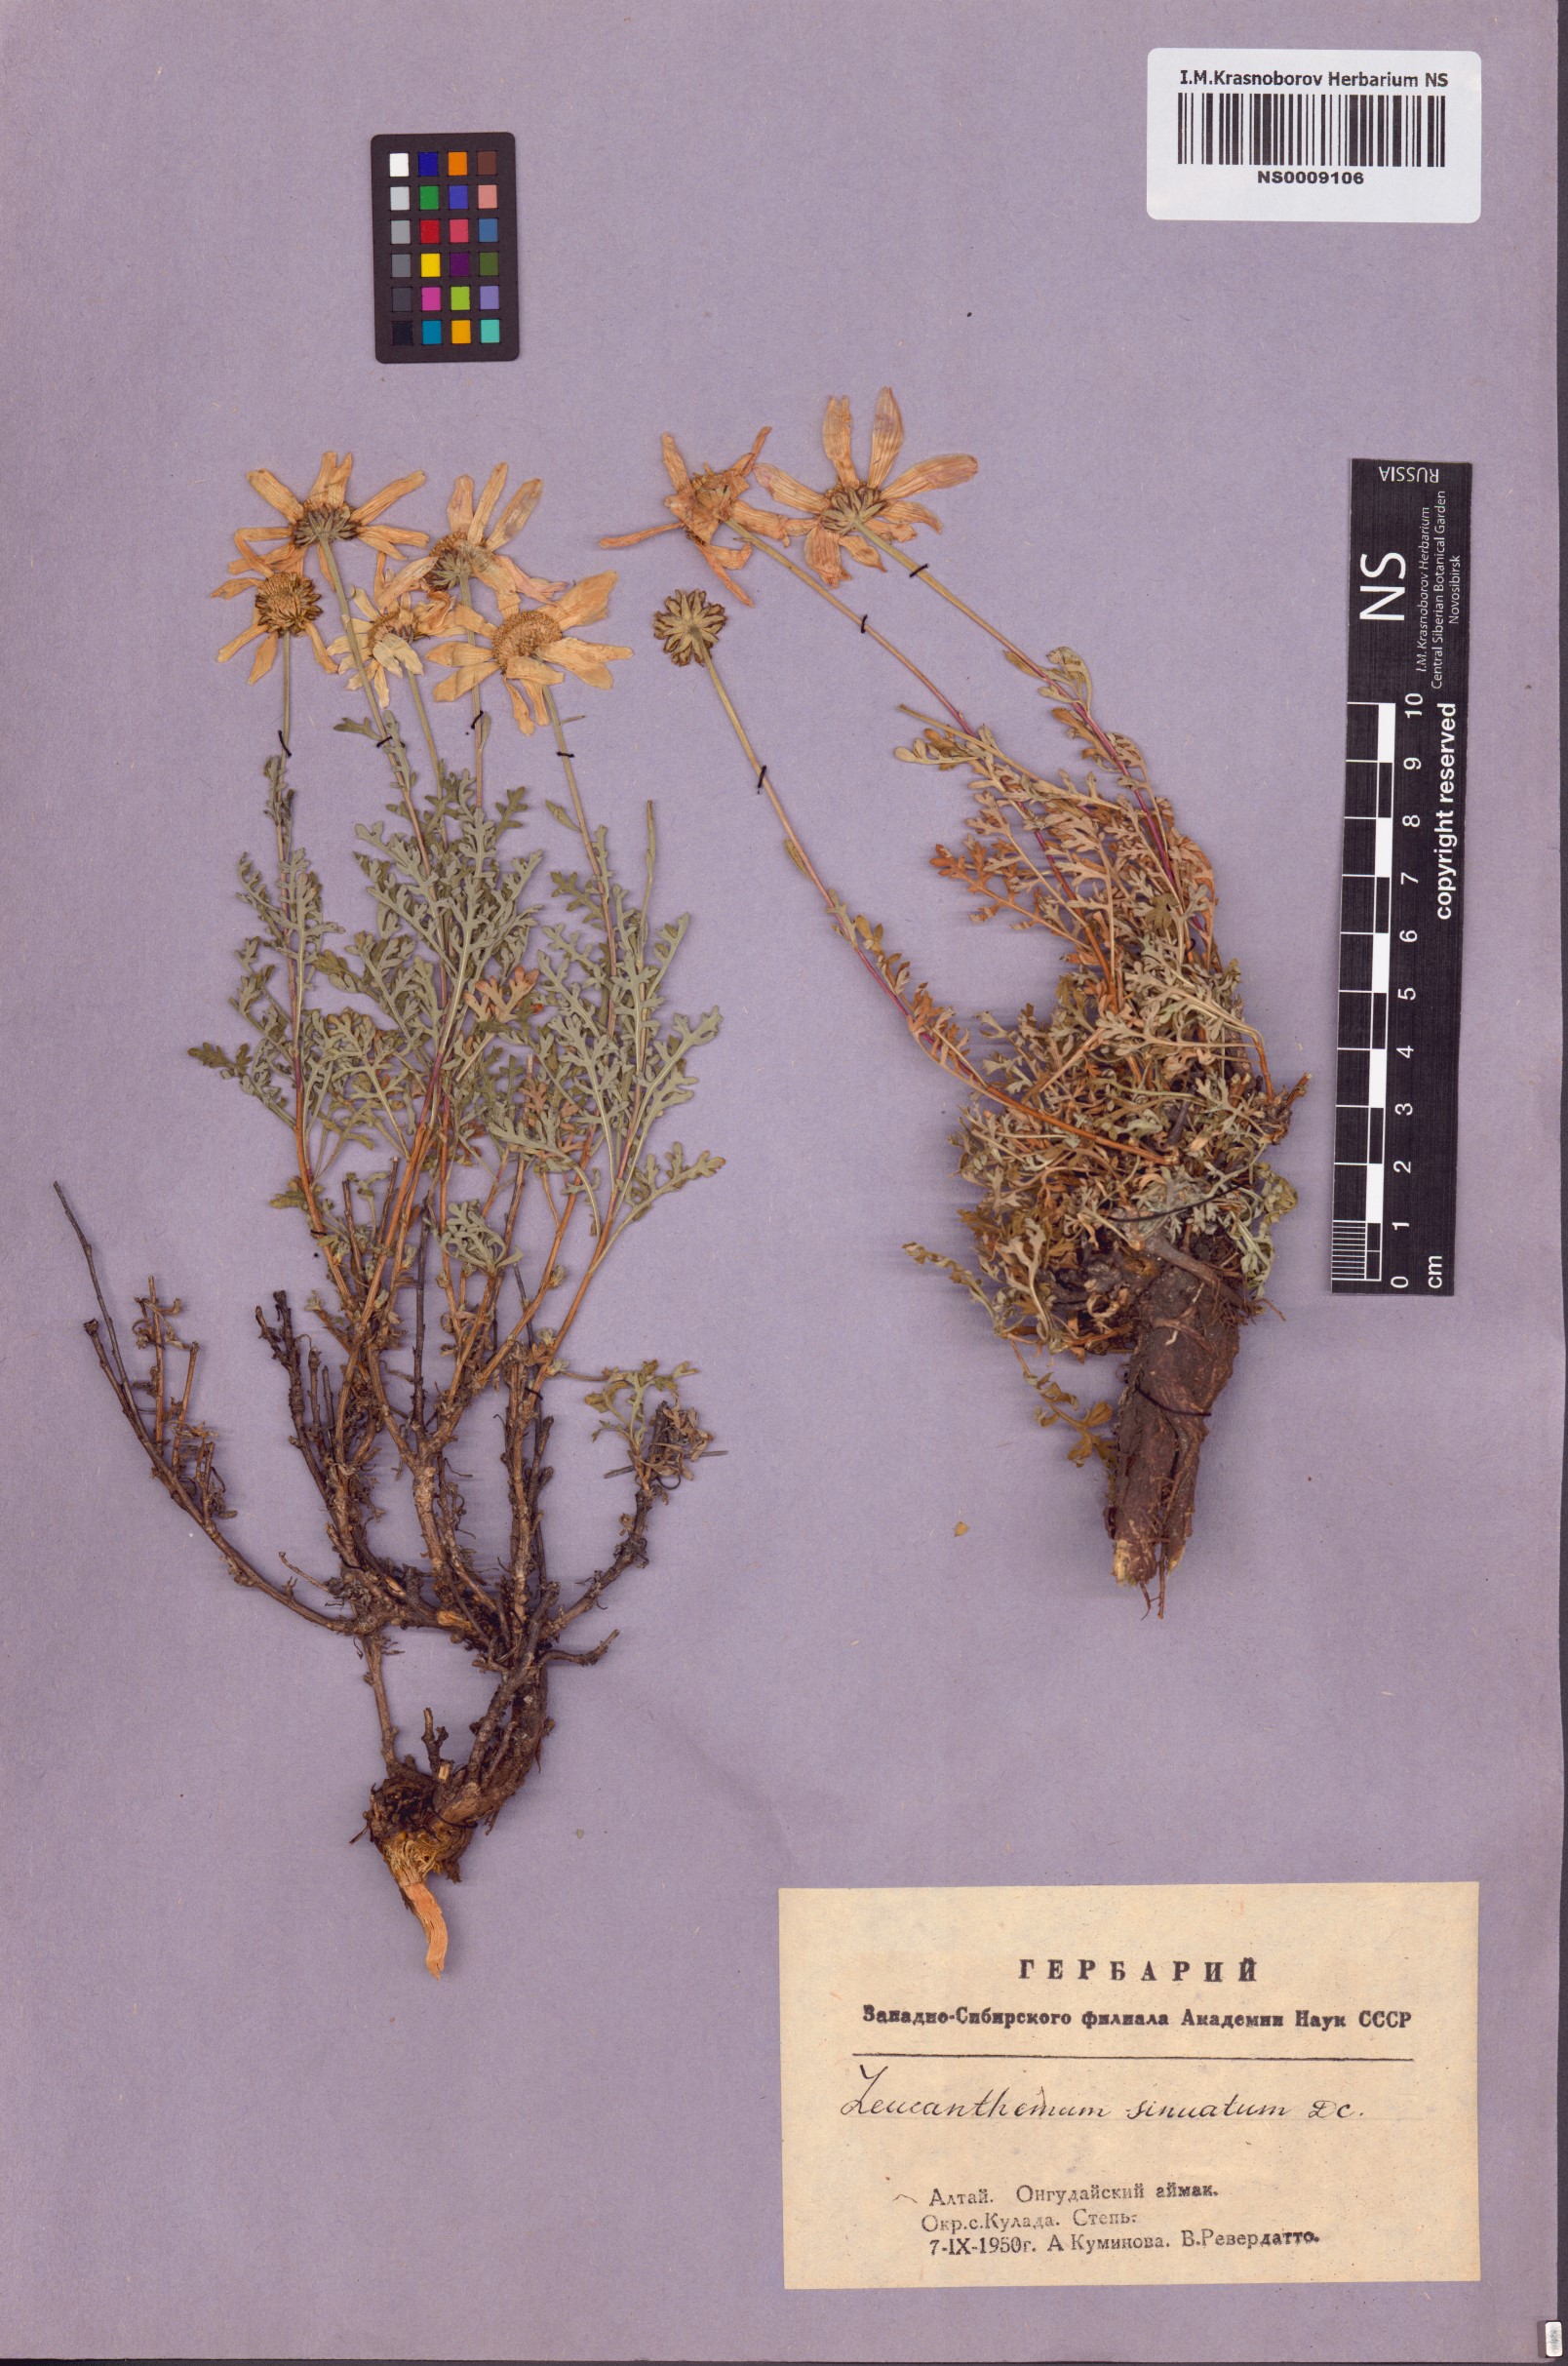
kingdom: Plantae
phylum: Tracheophyta
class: Magnoliopsida
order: Asterales
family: Asteraceae
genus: Chrysanthemum
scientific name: Chrysanthemum sinuatum
